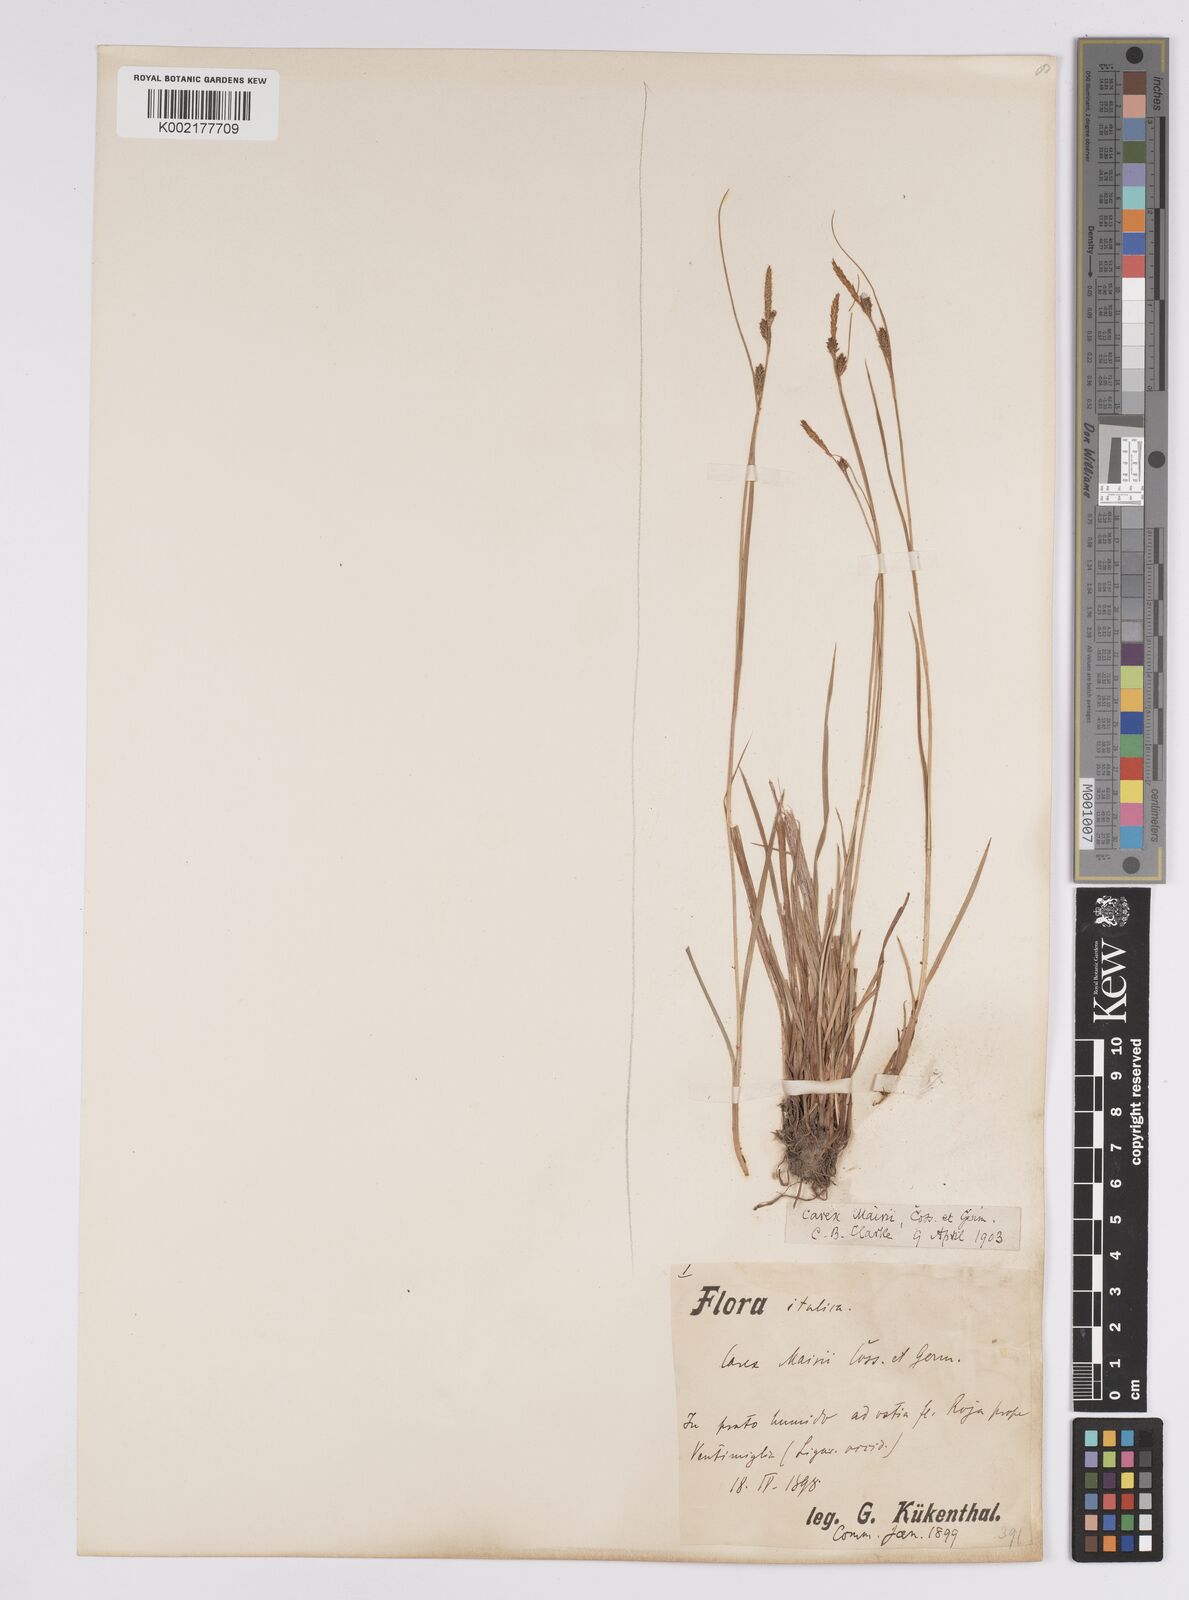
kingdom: Plantae
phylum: Tracheophyta
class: Liliopsida
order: Poales
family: Cyperaceae
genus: Carex
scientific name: Carex mairei
